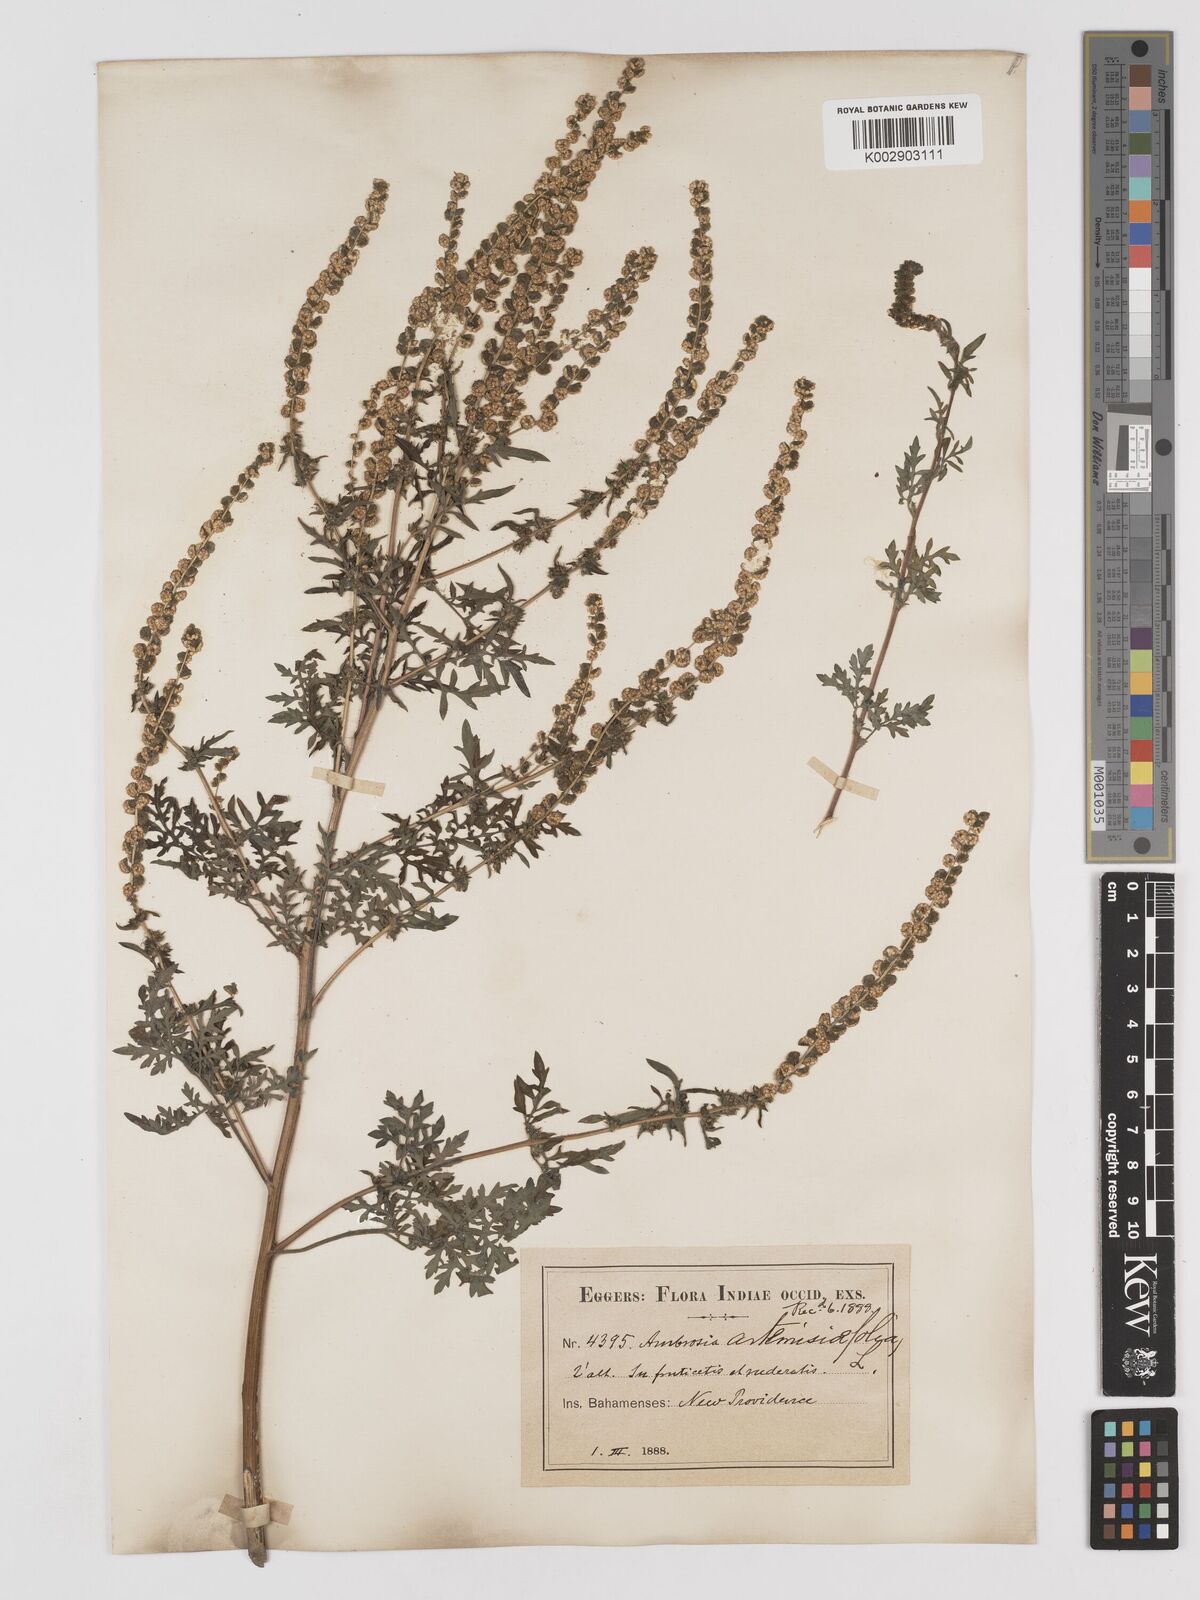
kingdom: Plantae
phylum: Tracheophyta
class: Magnoliopsida
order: Asterales
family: Asteraceae
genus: Ambrosia
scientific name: Ambrosia artemisiifolia
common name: Annual ragweed
